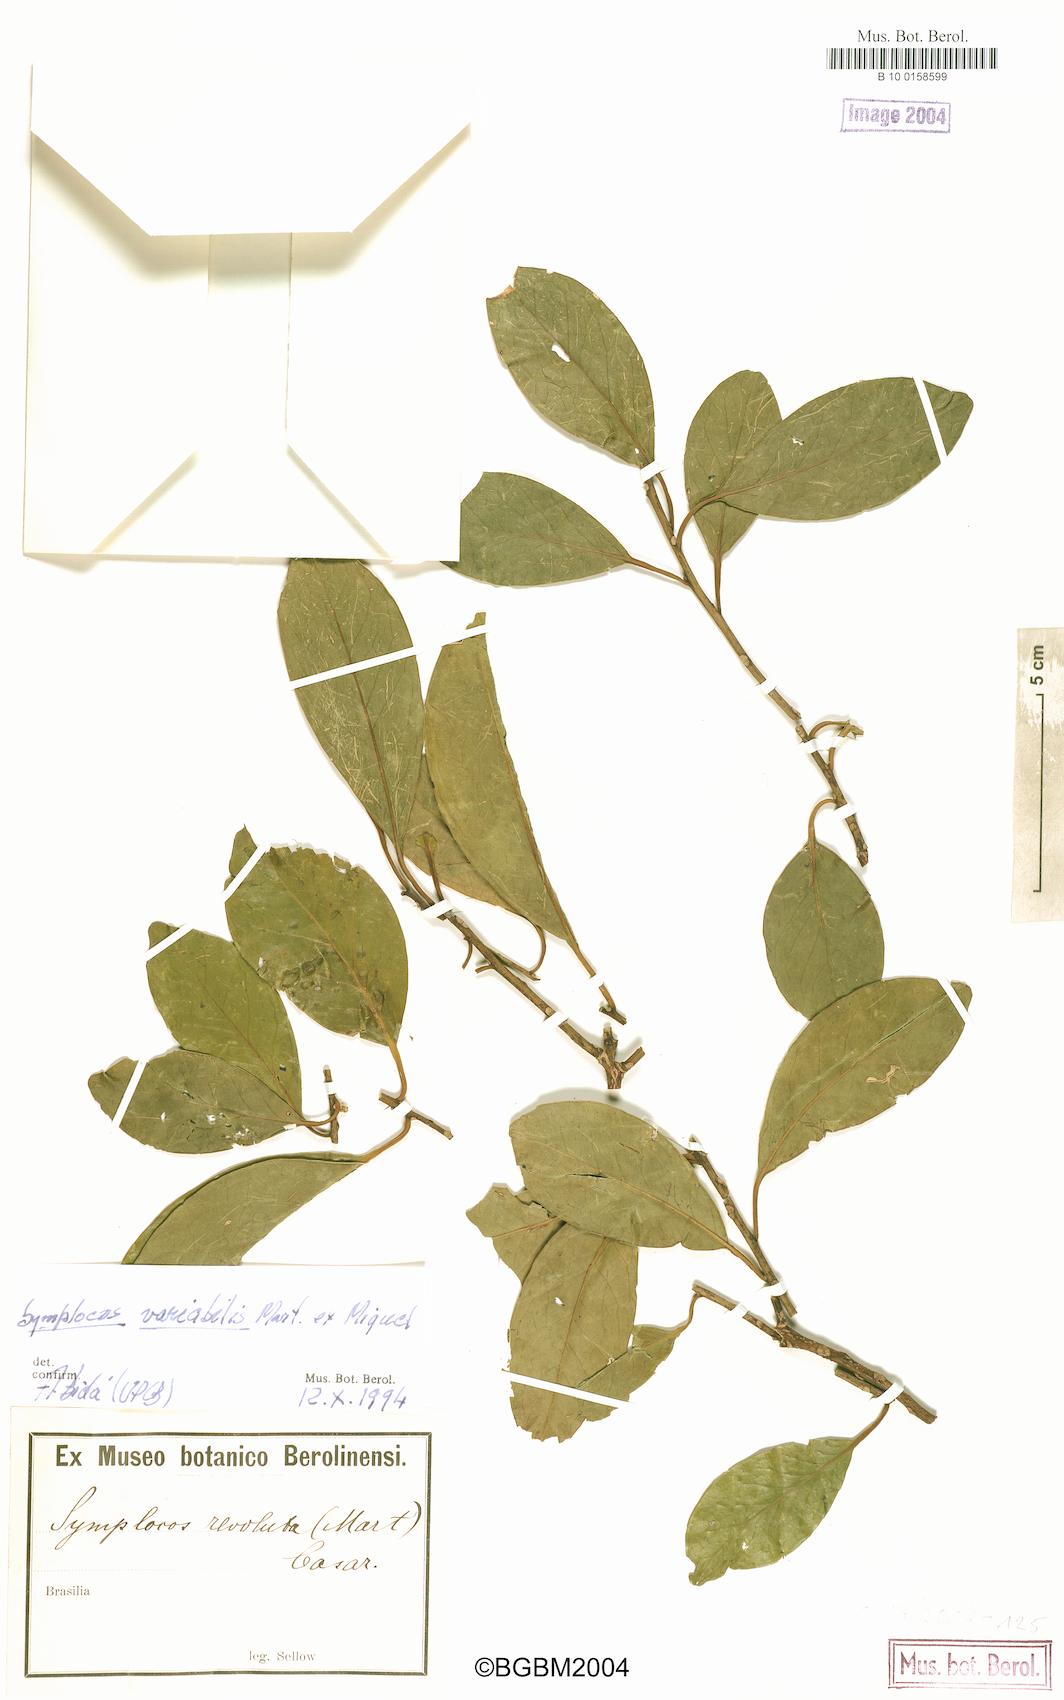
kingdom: Plantae
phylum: Tracheophyta
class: Magnoliopsida
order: Ericales
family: Symplocaceae
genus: Symplocos
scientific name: Symplocos revoluta
